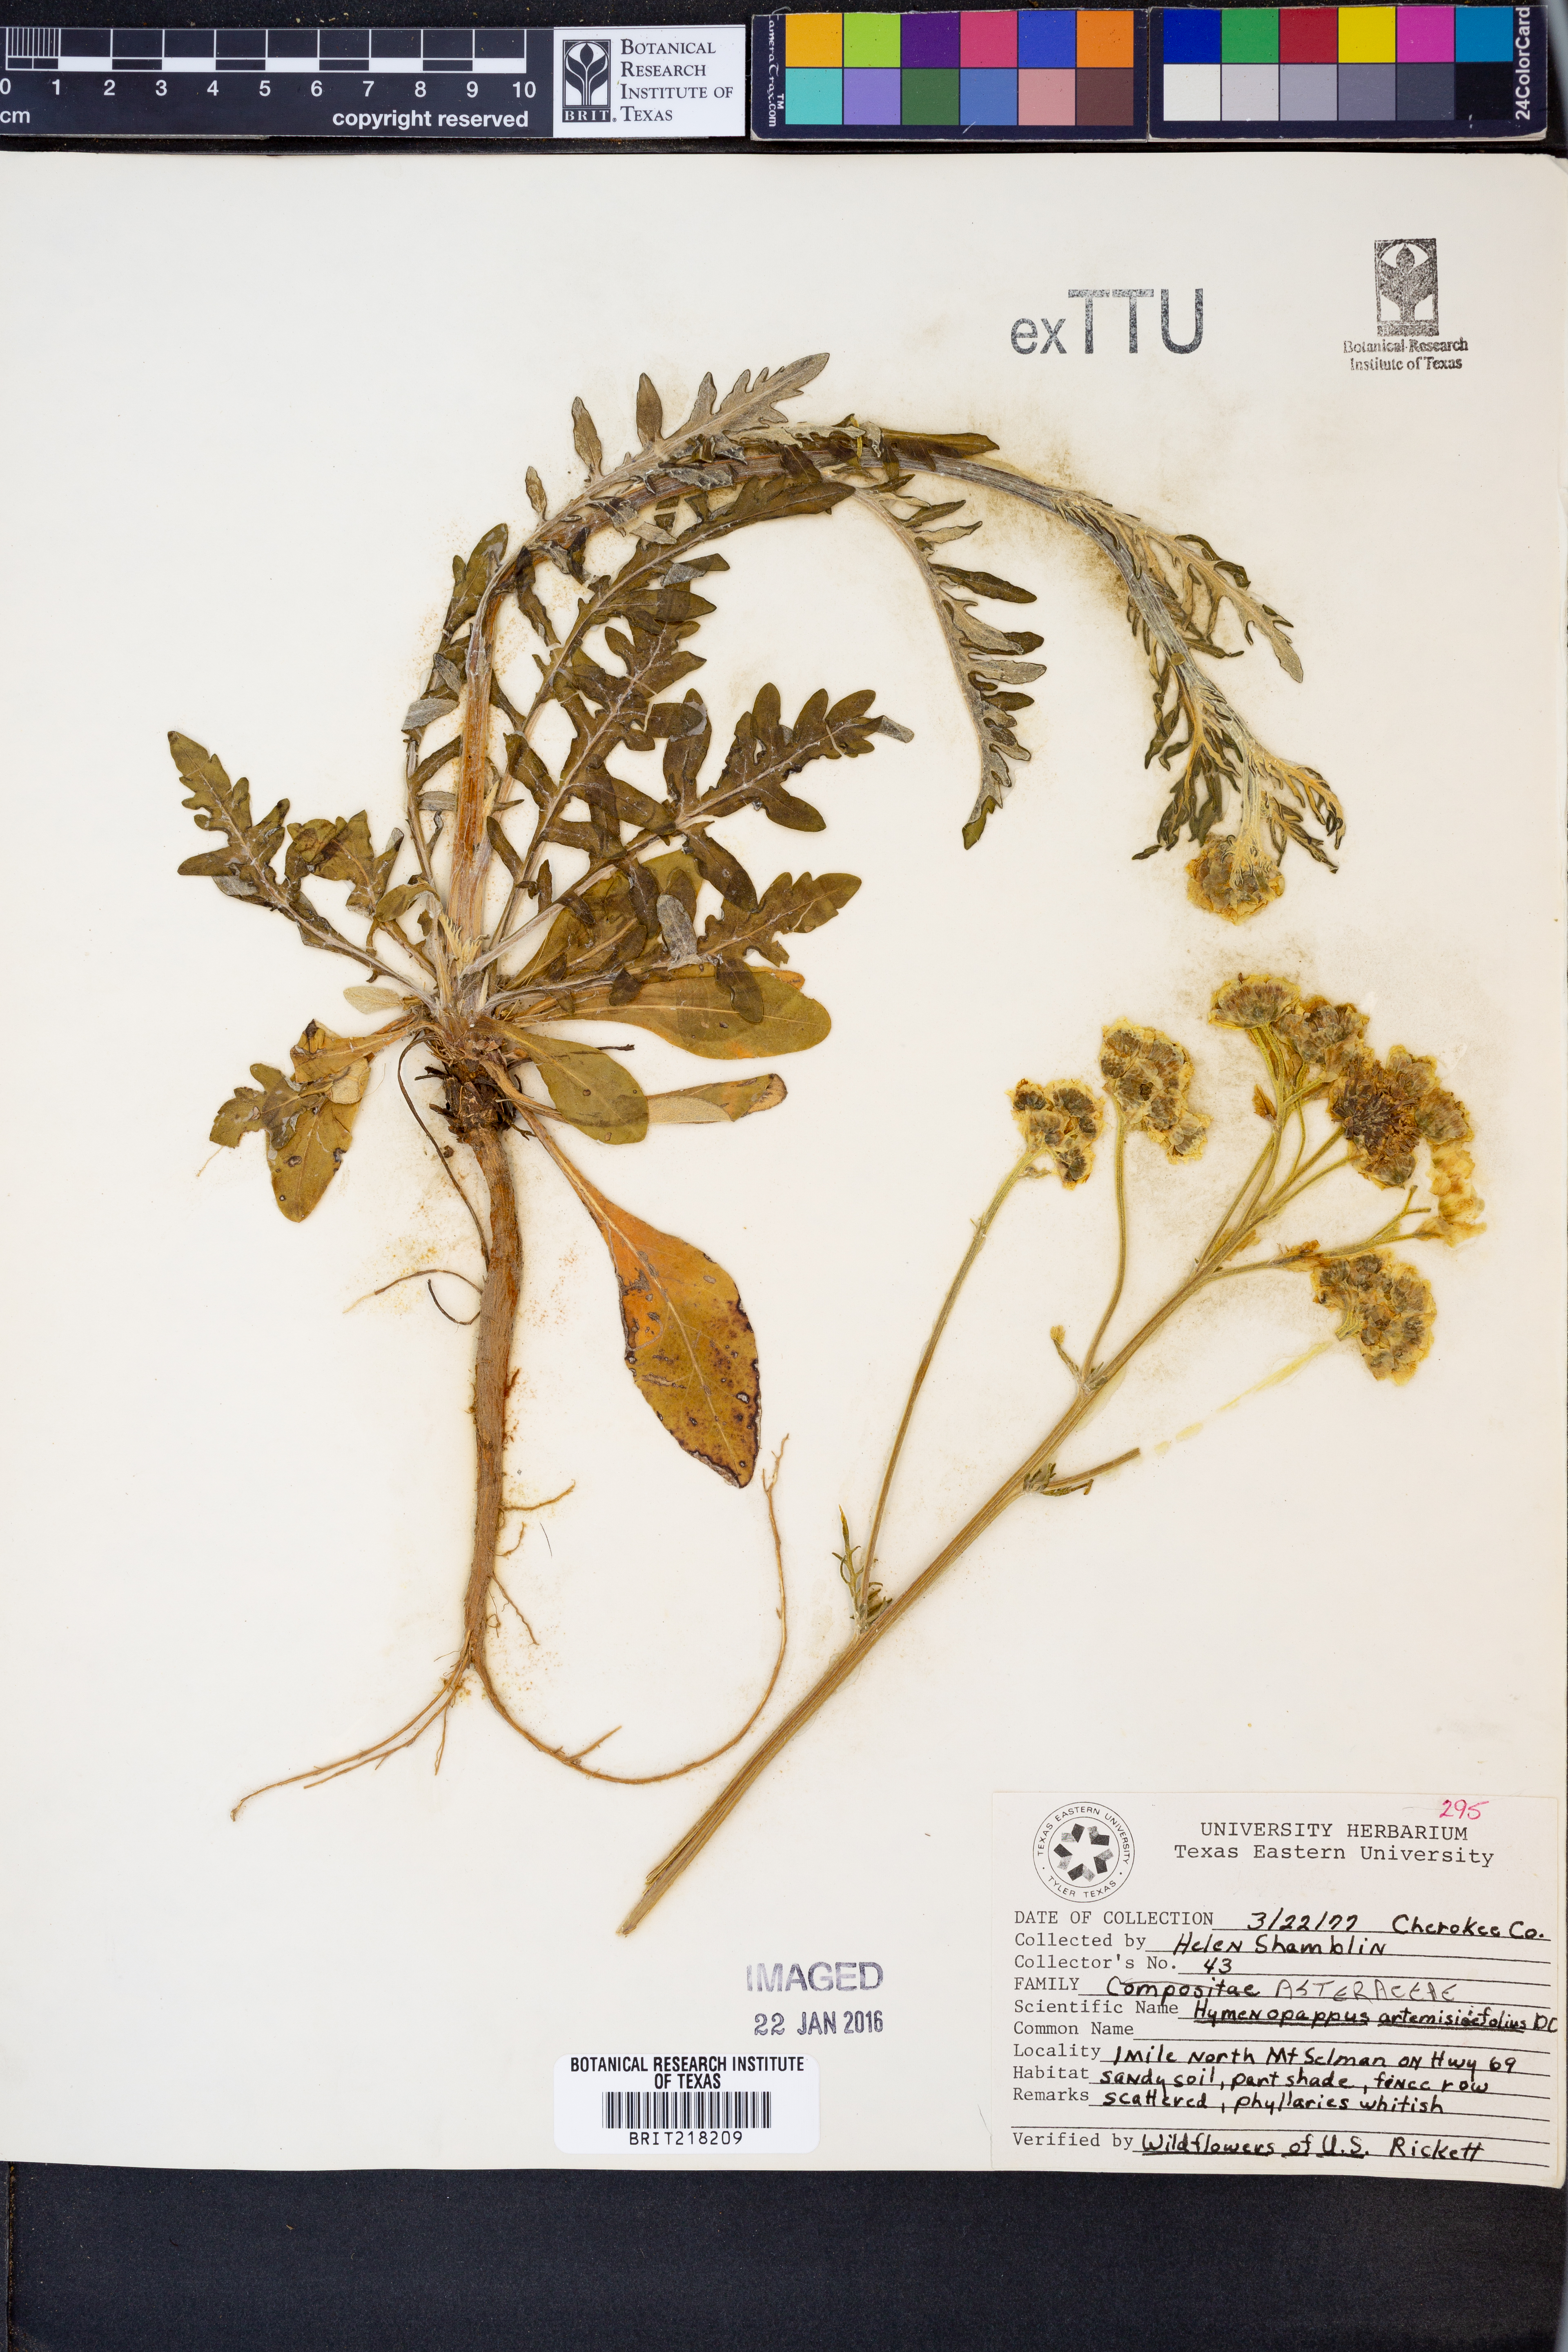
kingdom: Plantae
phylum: Tracheophyta
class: Magnoliopsida
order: Asterales
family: Asteraceae
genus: Hymenopappus
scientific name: Hymenopappus artemisiifolius
